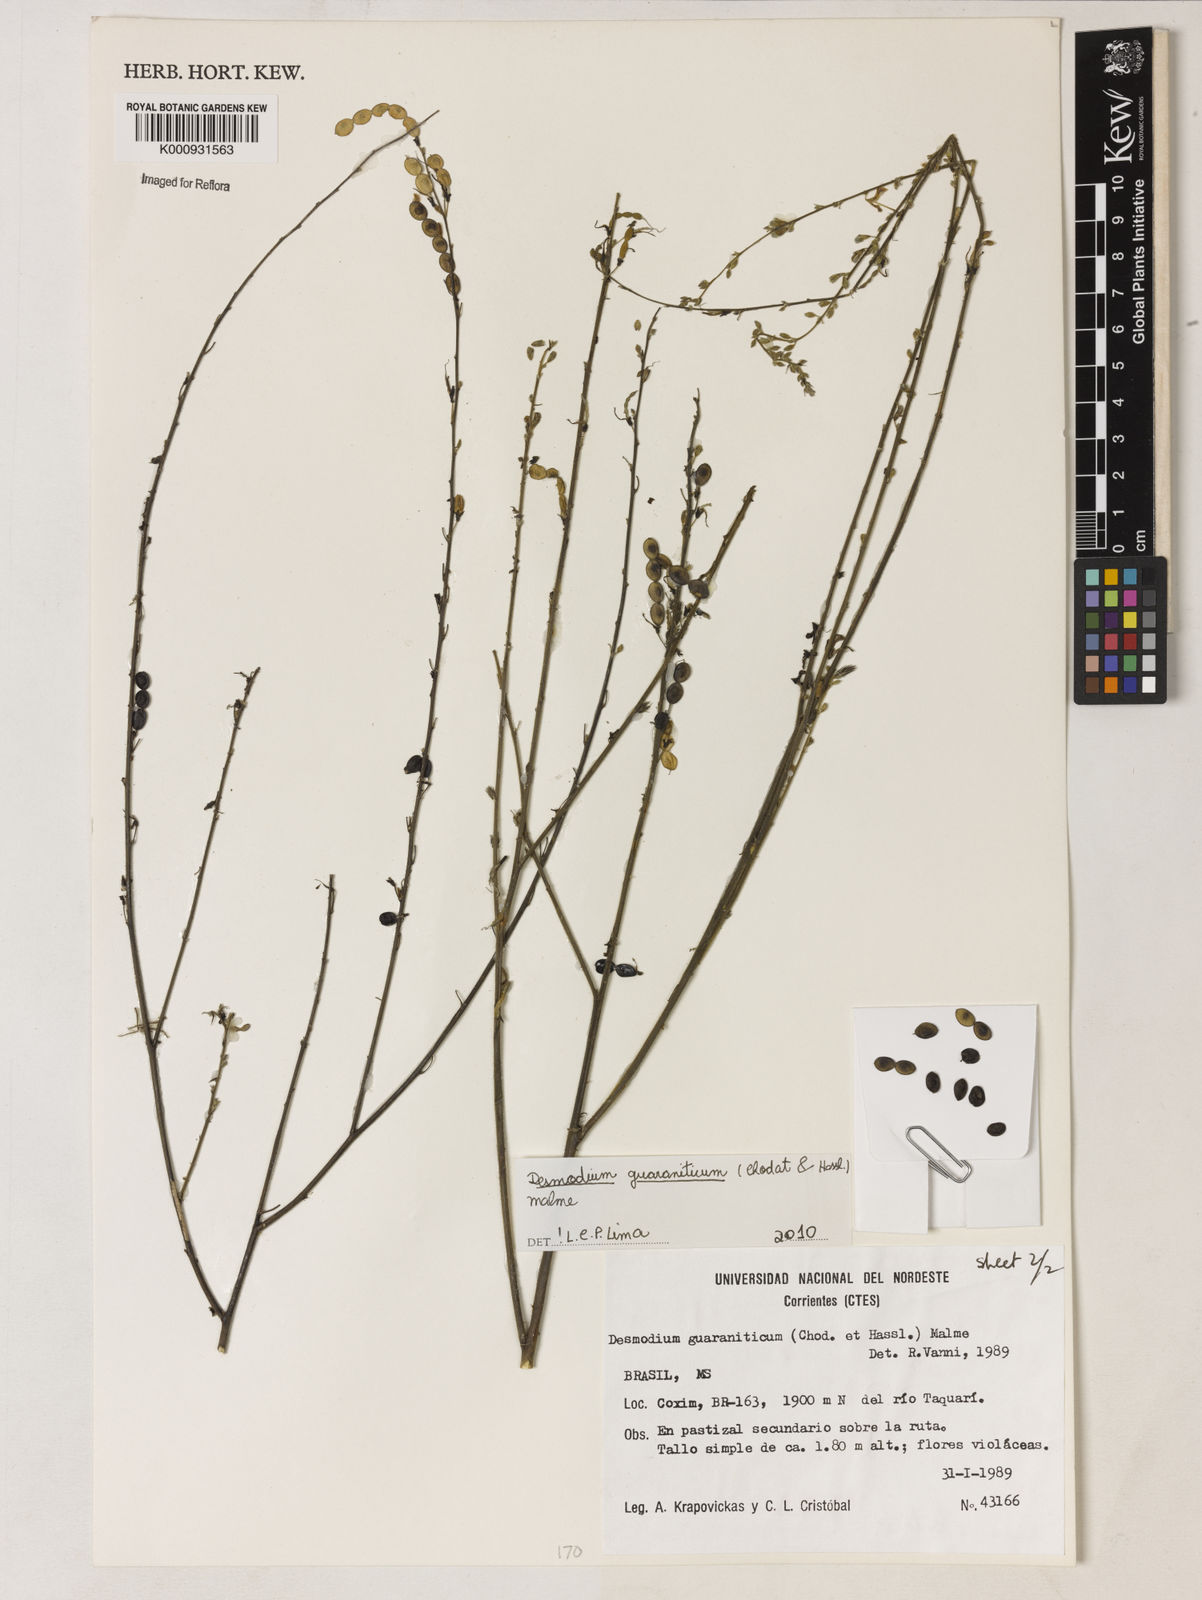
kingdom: Plantae
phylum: Tracheophyta
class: Magnoliopsida
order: Fabales
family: Fabaceae
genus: Desmodium
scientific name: Desmodium guaraniticum
